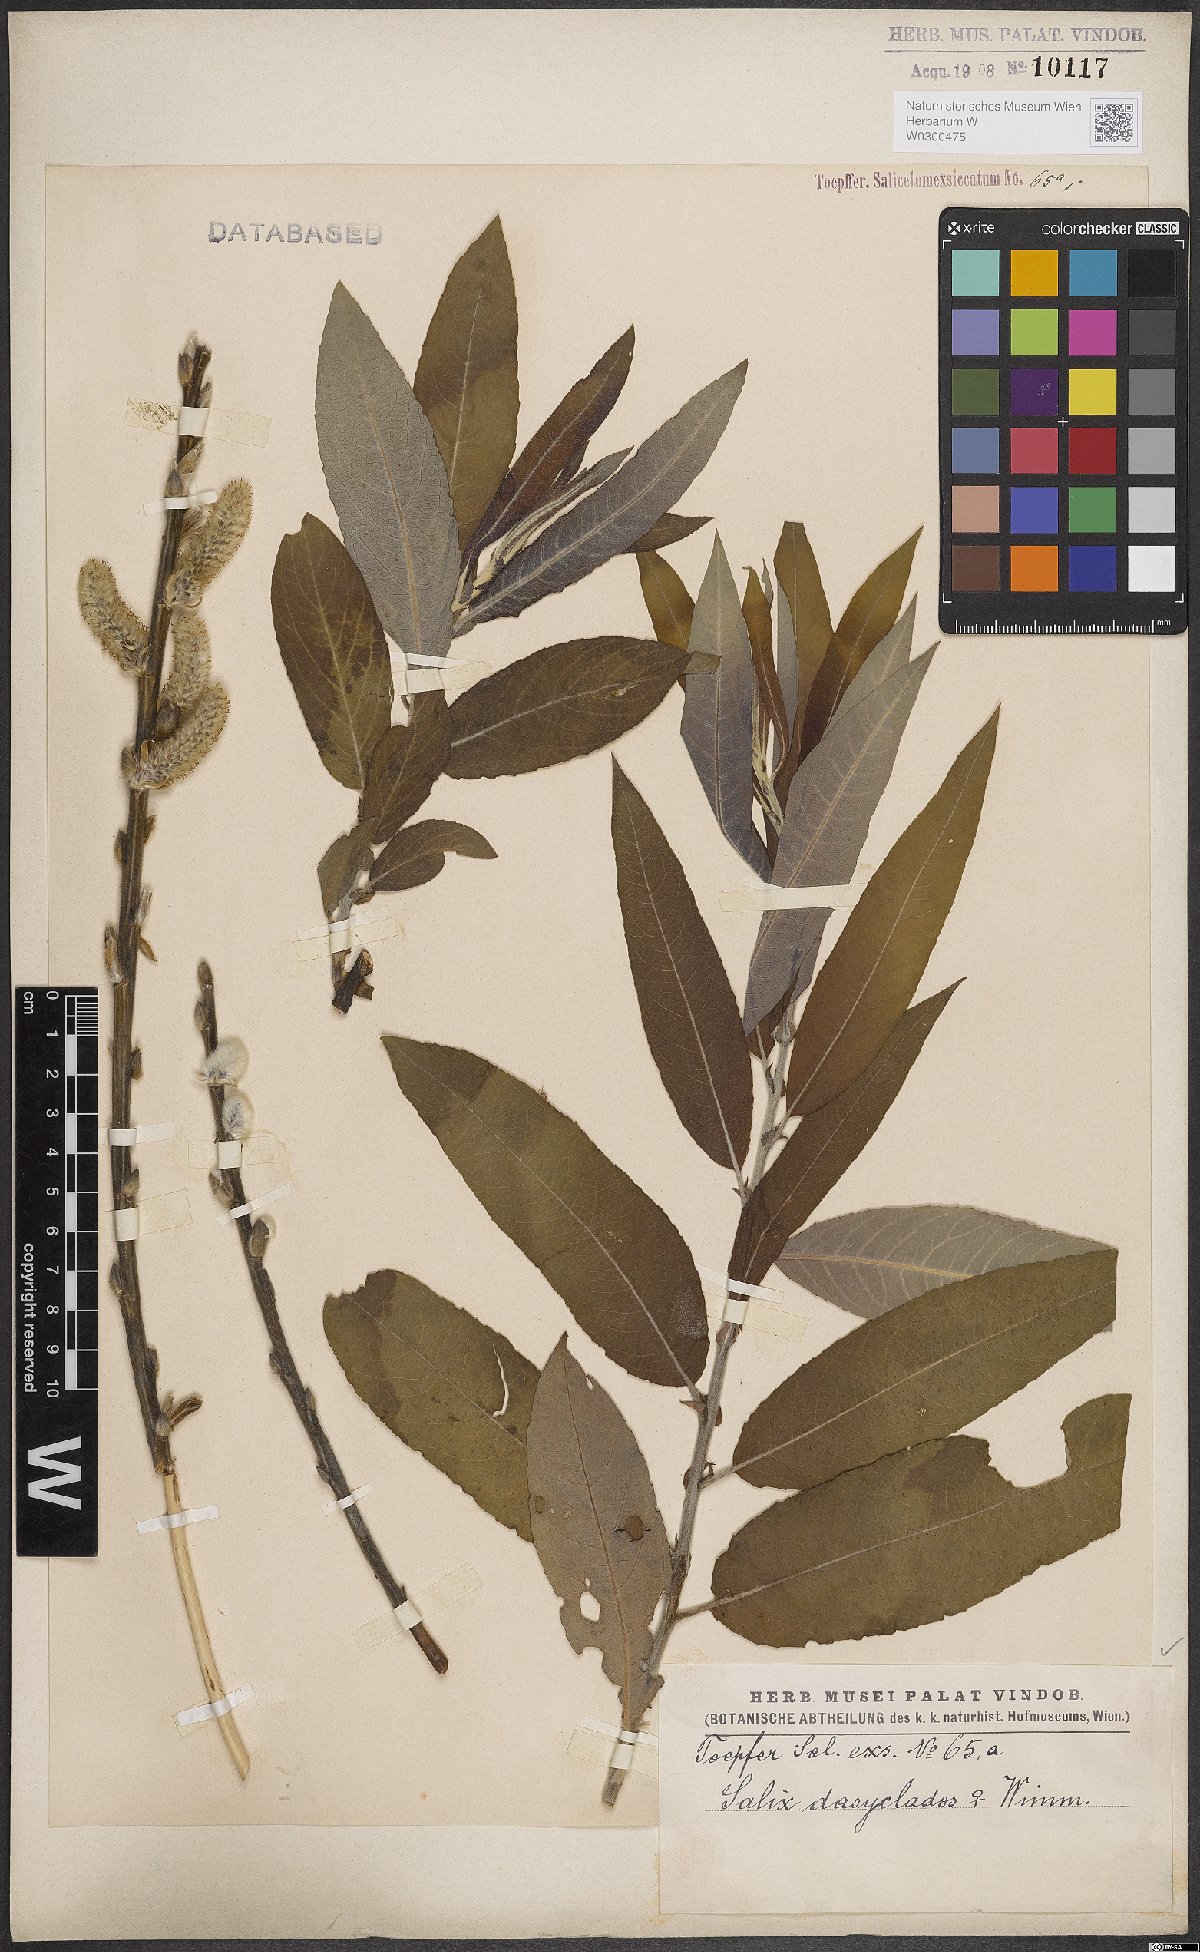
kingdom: Plantae
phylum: Tracheophyta
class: Magnoliopsida
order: Malpighiales
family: Salicaceae
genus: Salix
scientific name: Salix gmelinii
